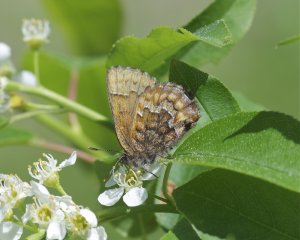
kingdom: Animalia
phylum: Arthropoda
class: Insecta
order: Lepidoptera
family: Lycaenidae
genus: Incisalia
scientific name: Incisalia niphon
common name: Eastern Pine Elfin
